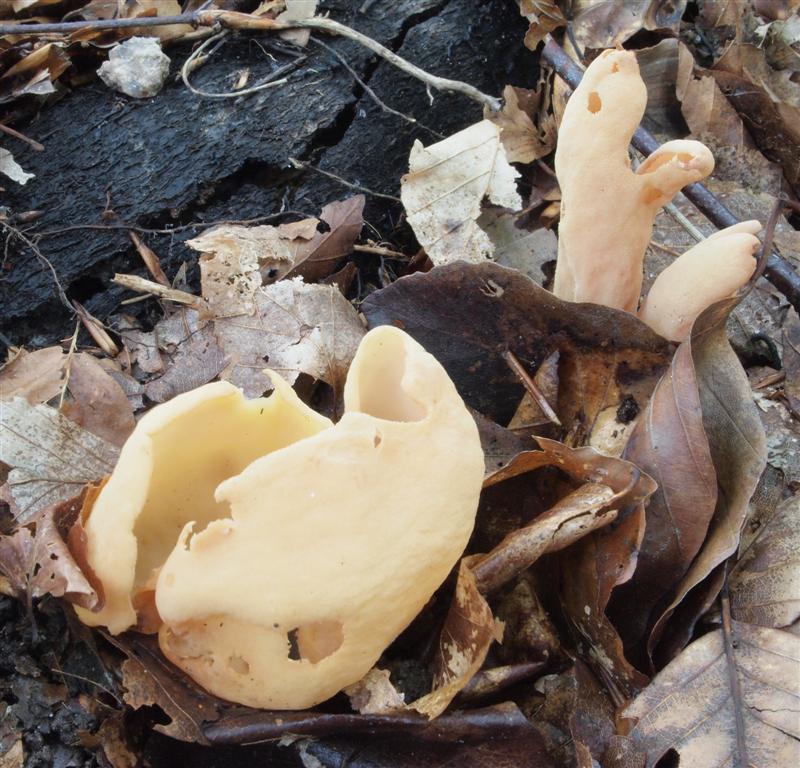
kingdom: Fungi
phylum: Ascomycota
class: Pezizomycetes
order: Pezizales
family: Otideaceae
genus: Otidea
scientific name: Otidea onotica
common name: æsel-ørebæger
